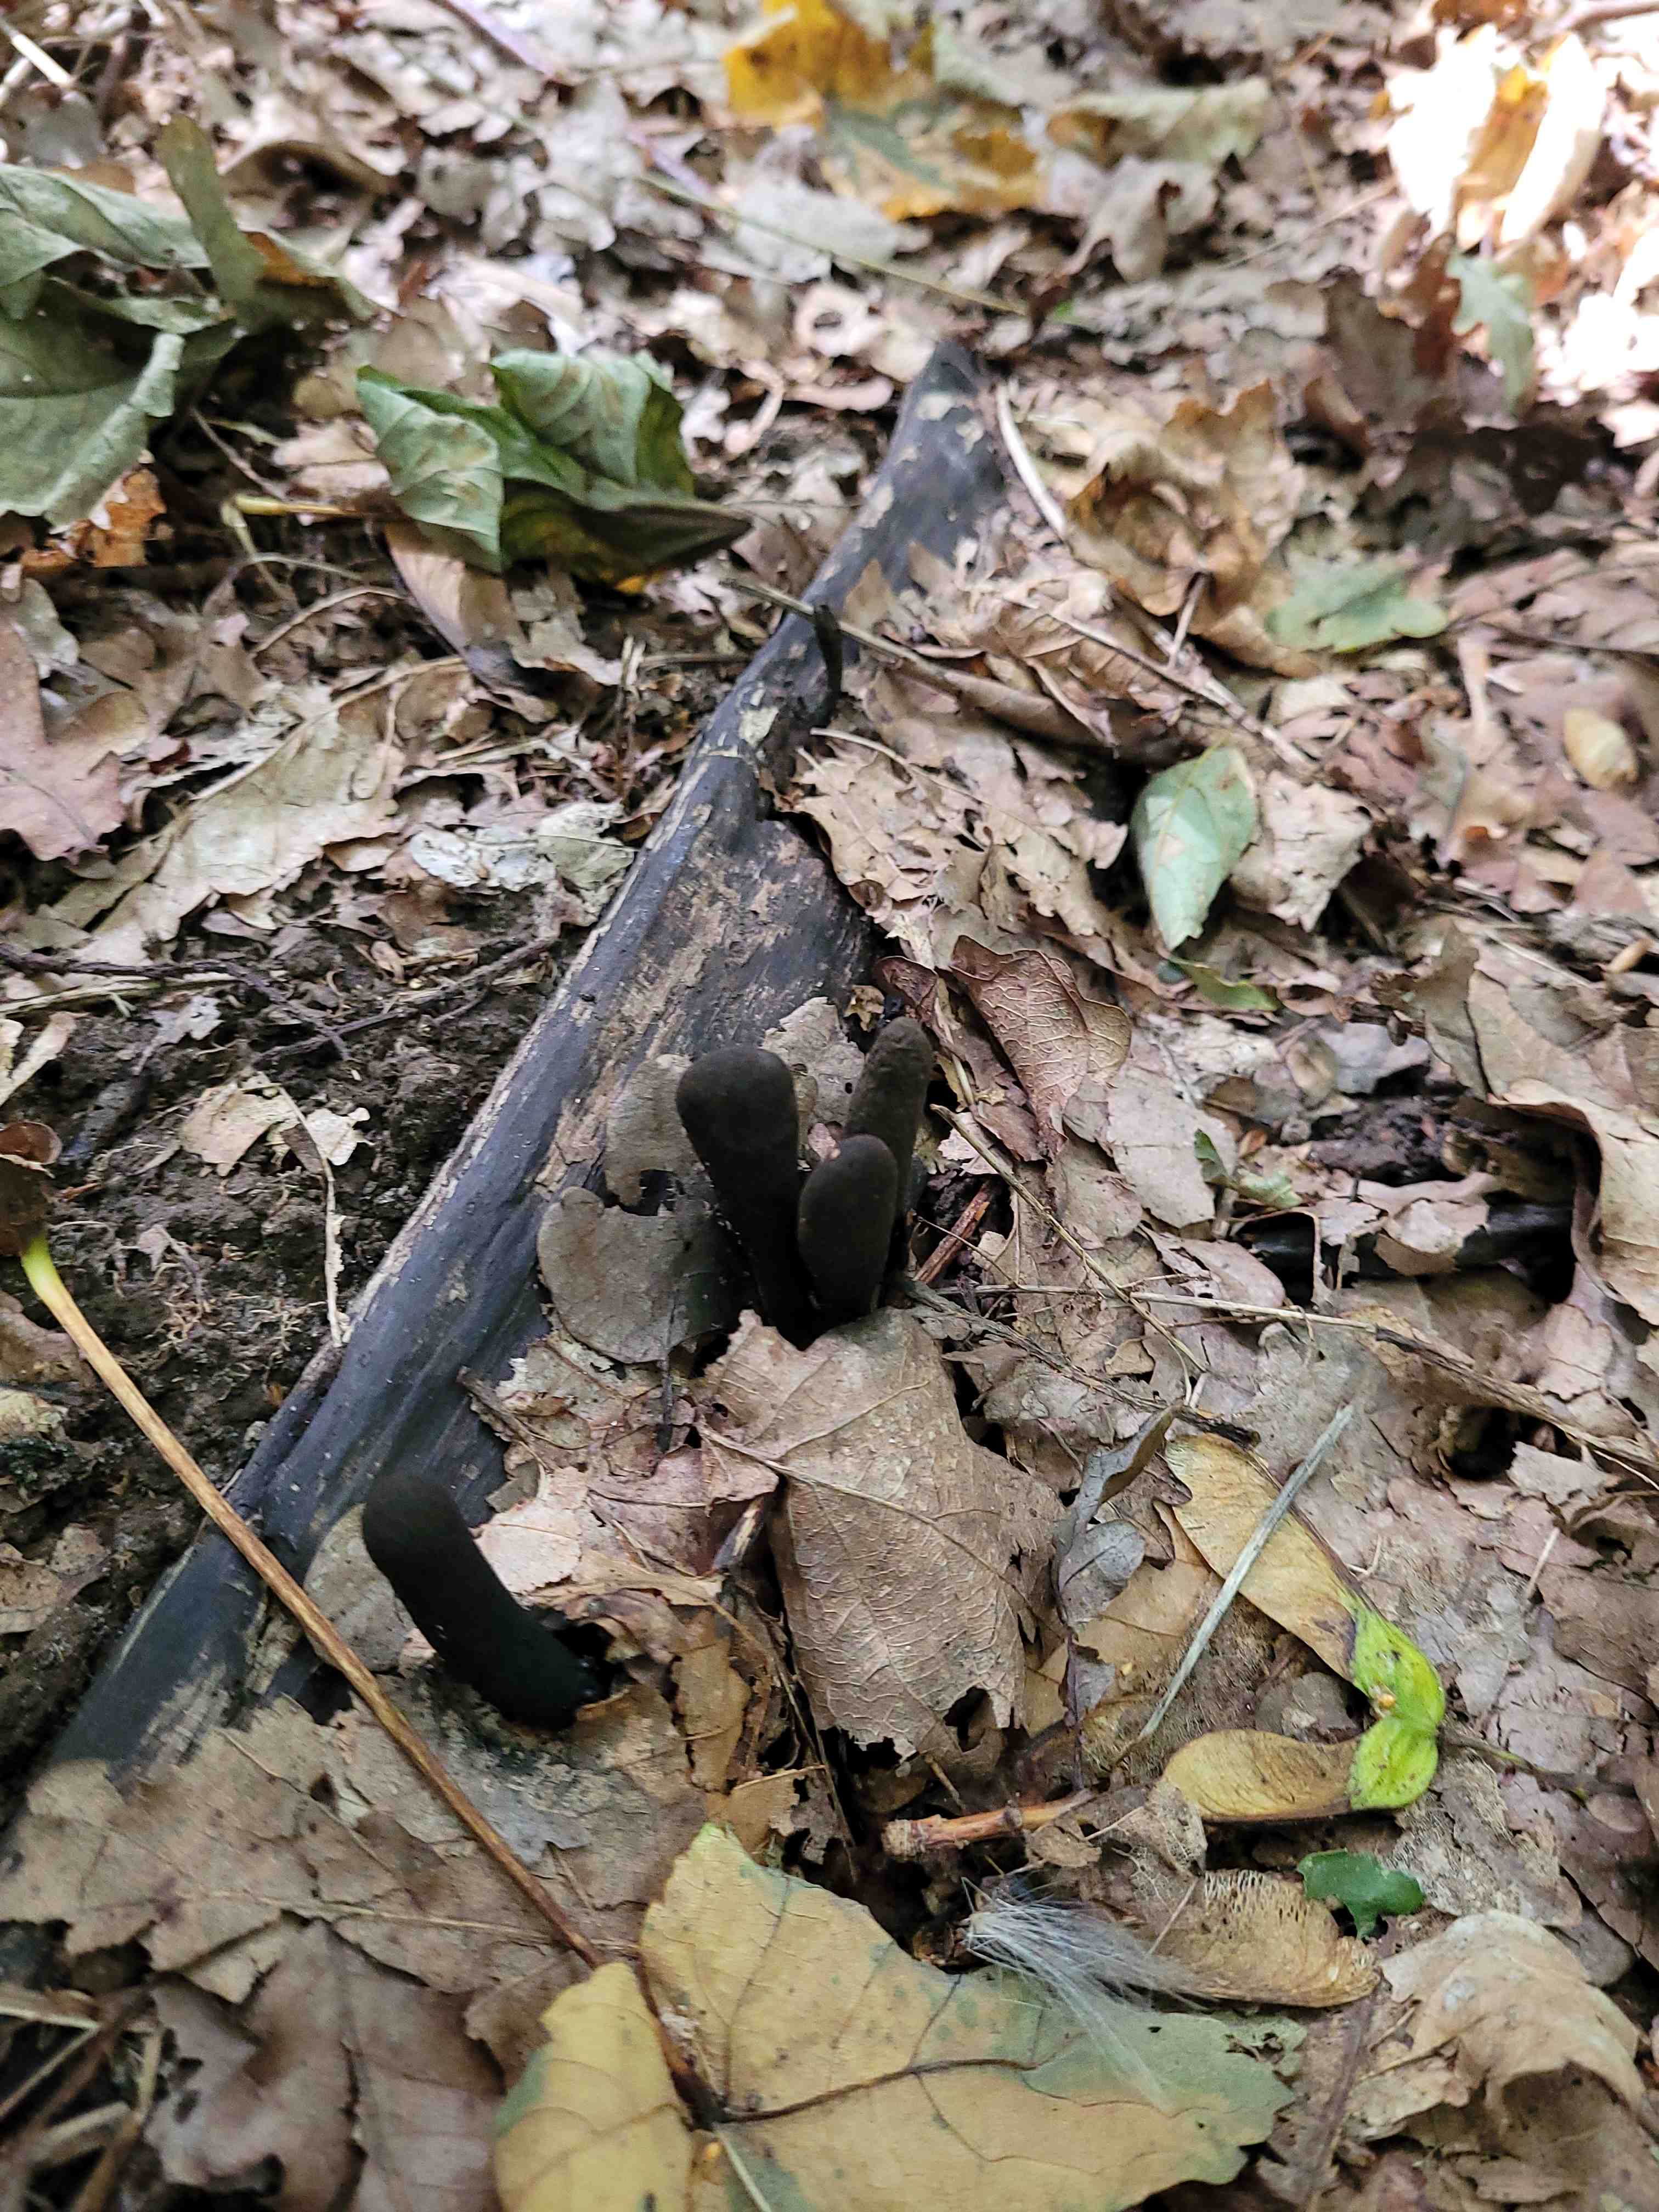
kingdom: Fungi
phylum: Ascomycota
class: Sordariomycetes
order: Xylariales
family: Xylariaceae
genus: Xylaria
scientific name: Xylaria
